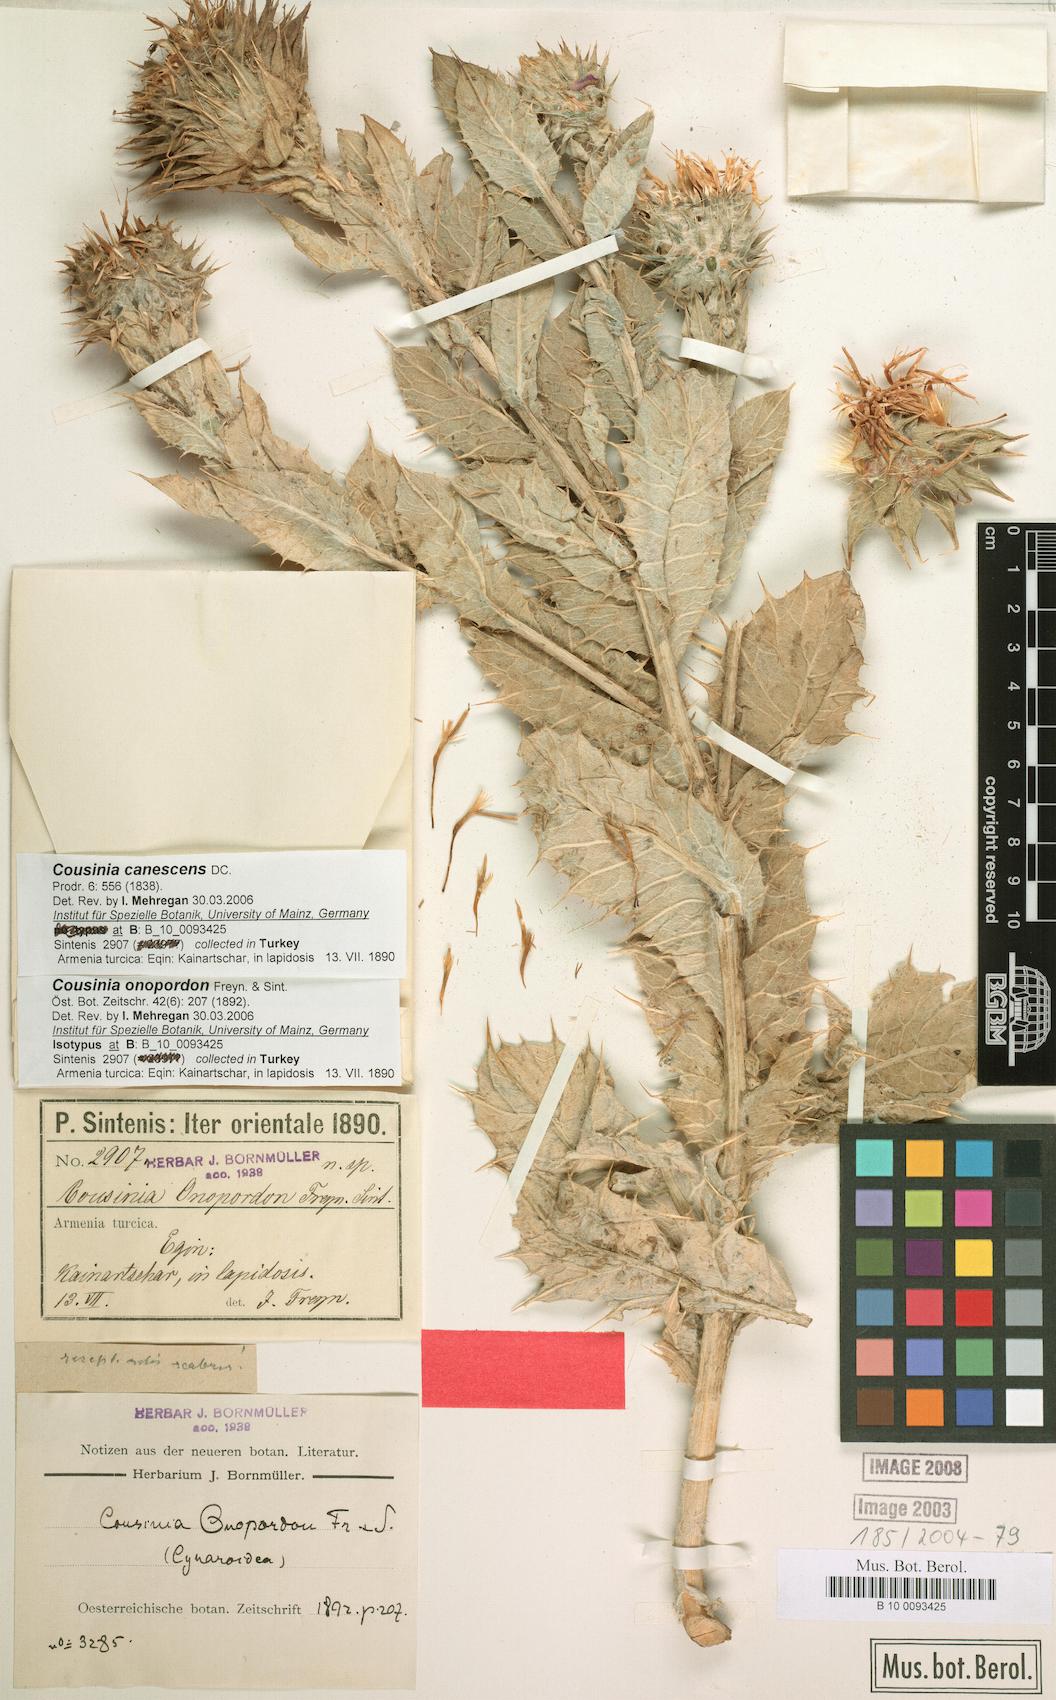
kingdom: Plantae
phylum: Tracheophyta
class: Magnoliopsida
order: Asterales
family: Asteraceae
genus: Cousinia
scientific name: Cousinia canescens
